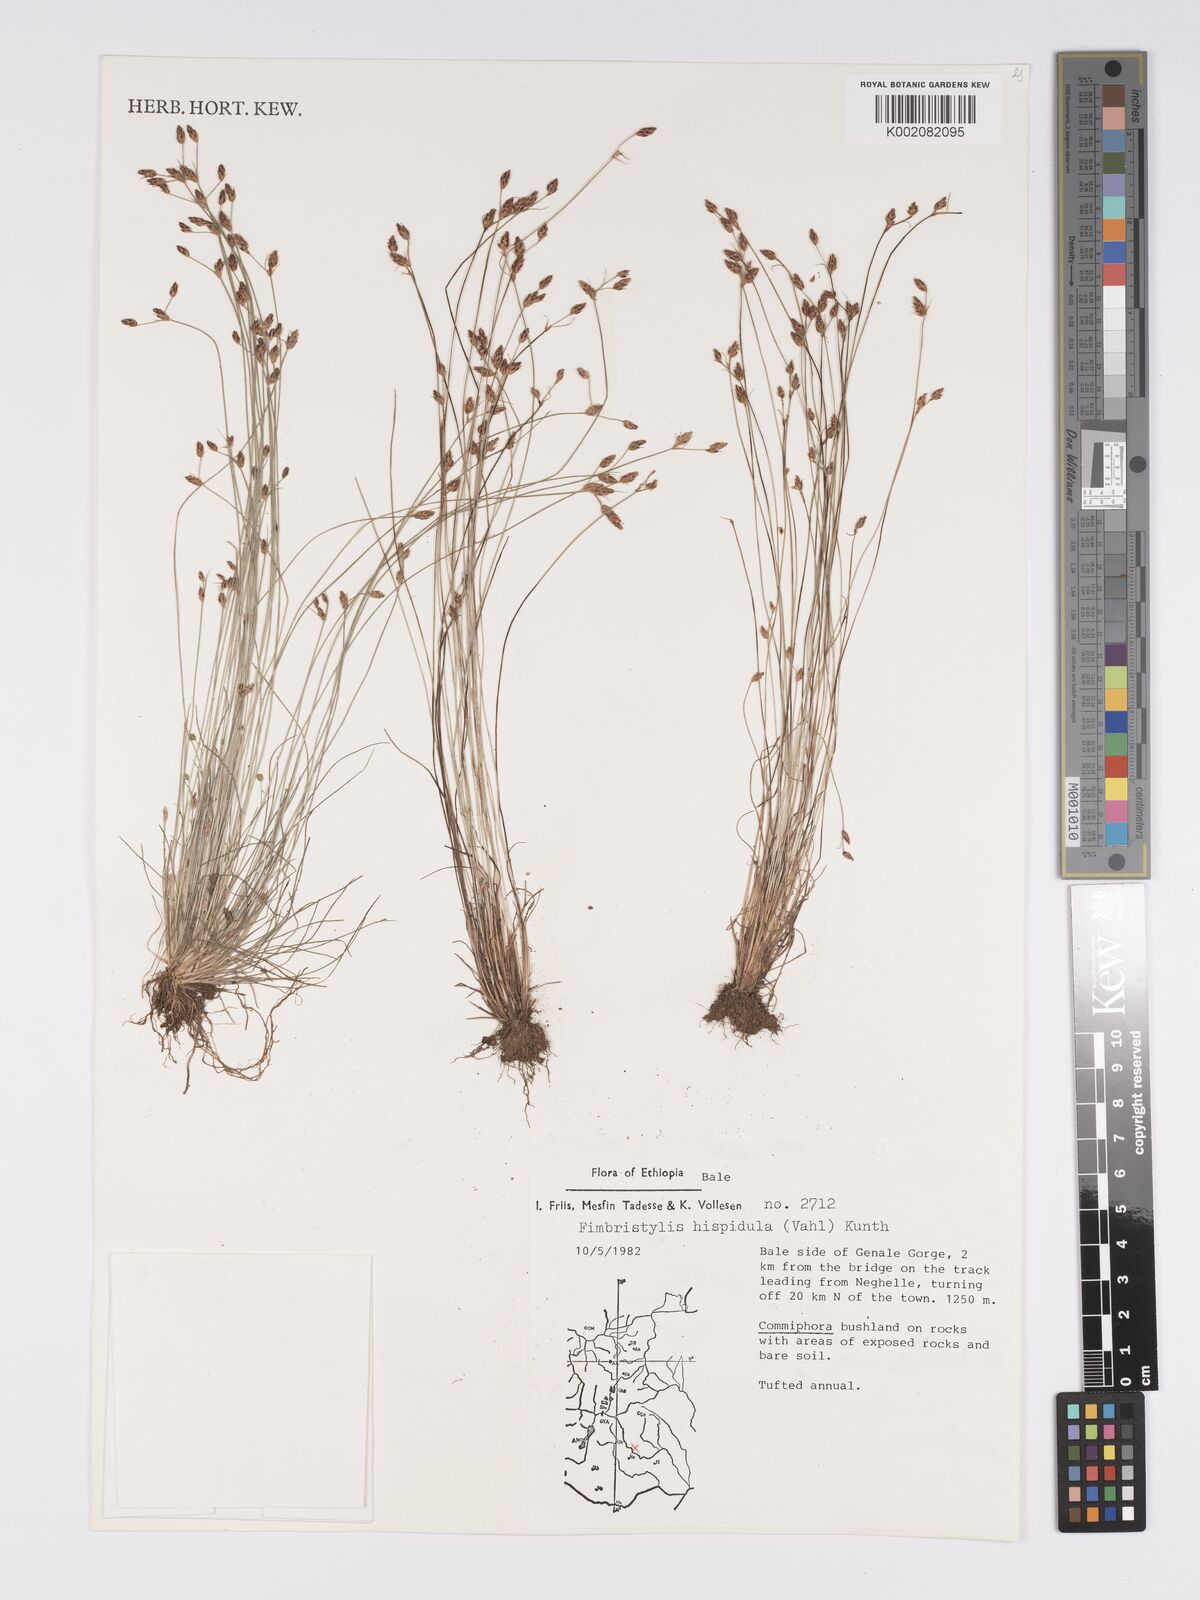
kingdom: Plantae
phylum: Tracheophyta
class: Liliopsida
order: Poales
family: Cyperaceae
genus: Bulbostylis
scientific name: Bulbostylis hispidula
